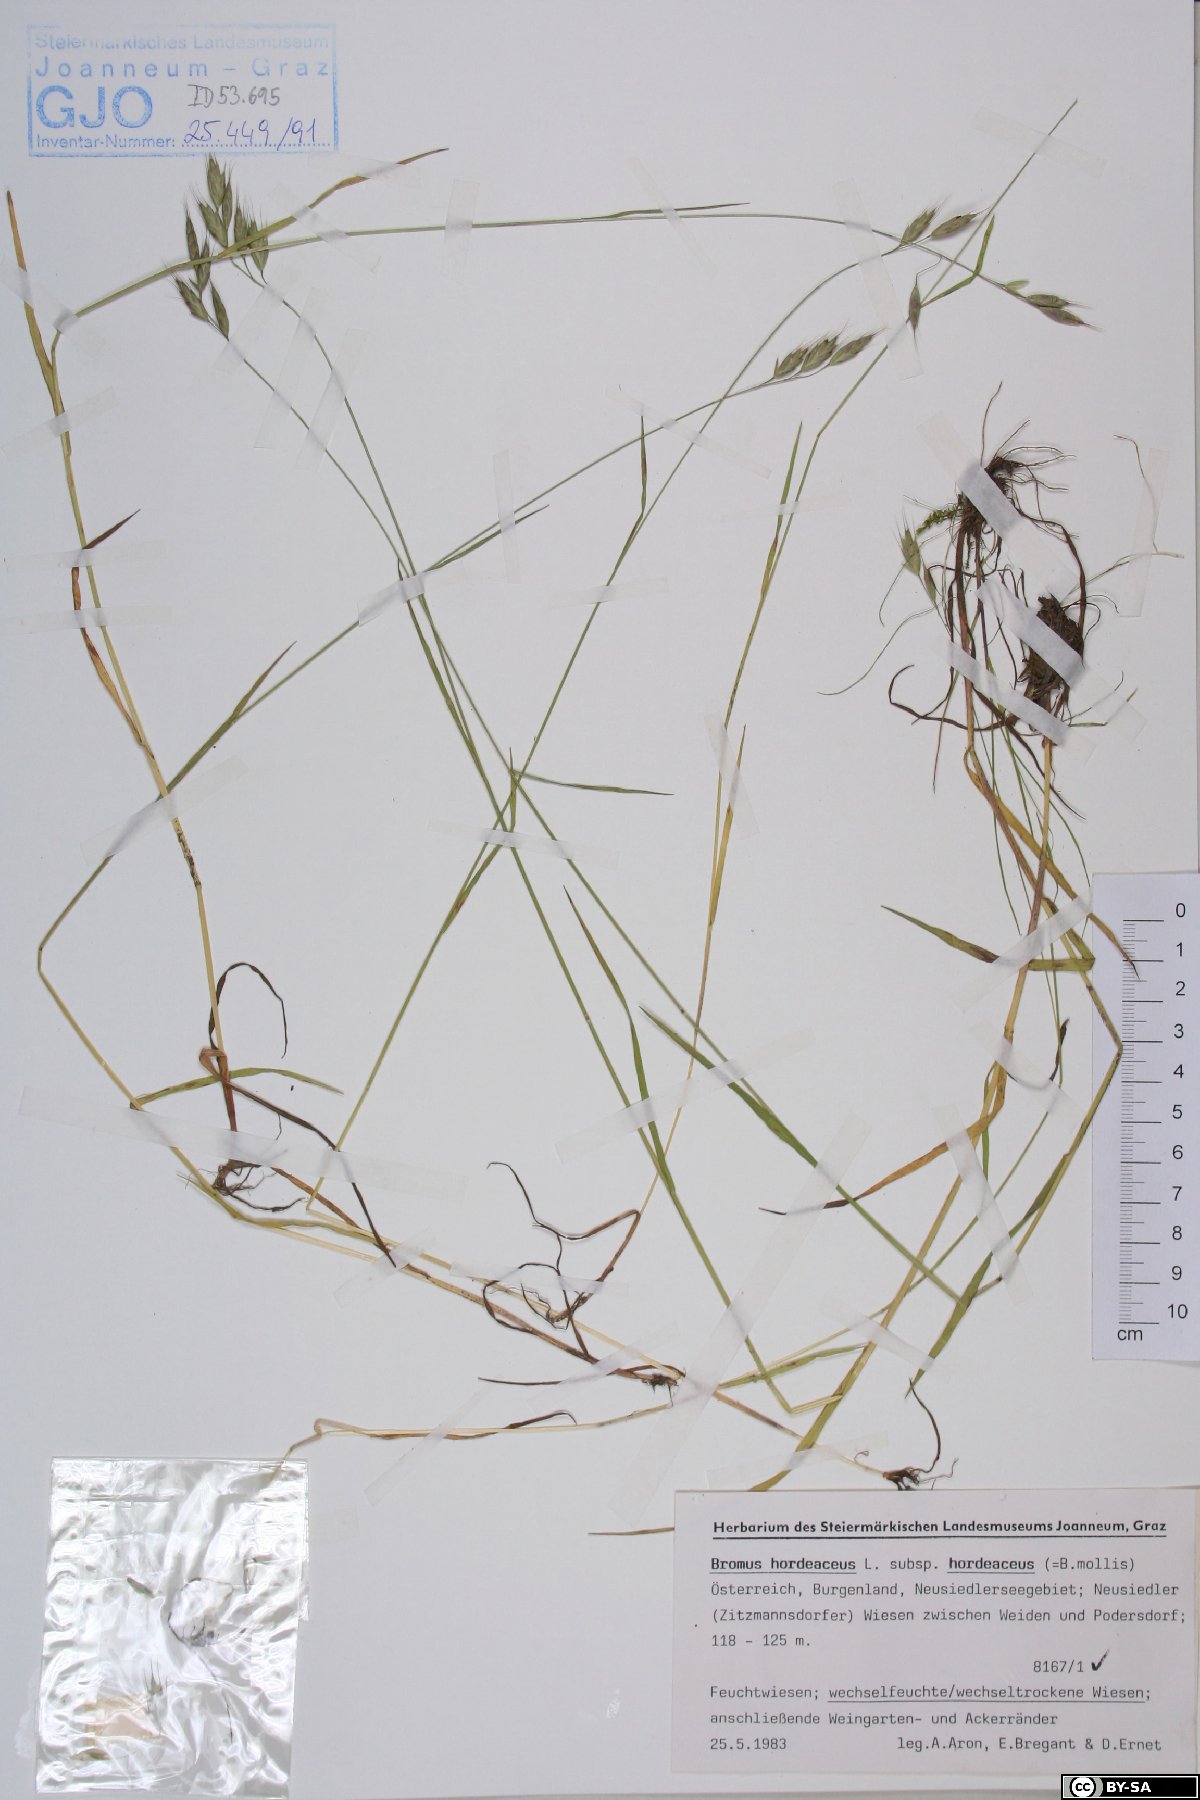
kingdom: Plantae
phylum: Tracheophyta
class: Liliopsida
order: Poales
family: Poaceae
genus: Bromus
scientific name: Bromus hordeaceus
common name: Soft brome
